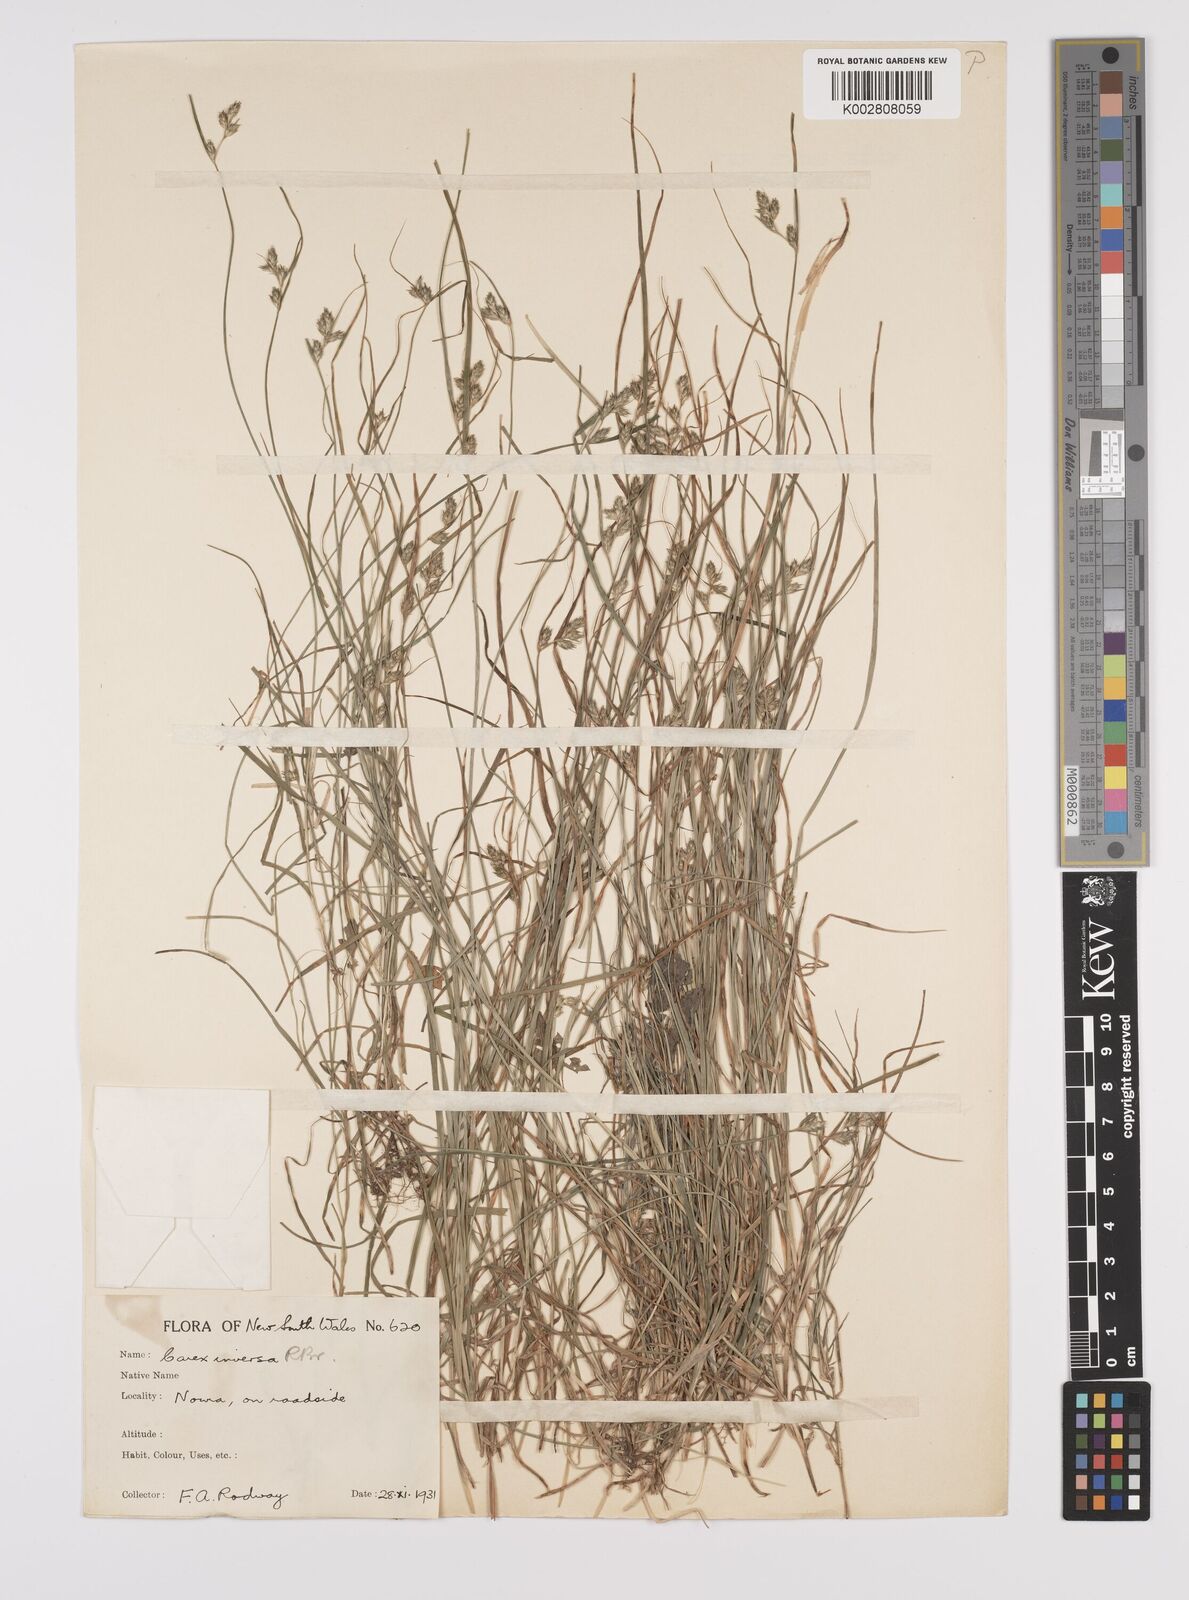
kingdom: Plantae
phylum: Tracheophyta
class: Liliopsida
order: Poales
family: Cyperaceae
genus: Carex
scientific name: Carex inversa
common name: Knob sedge
